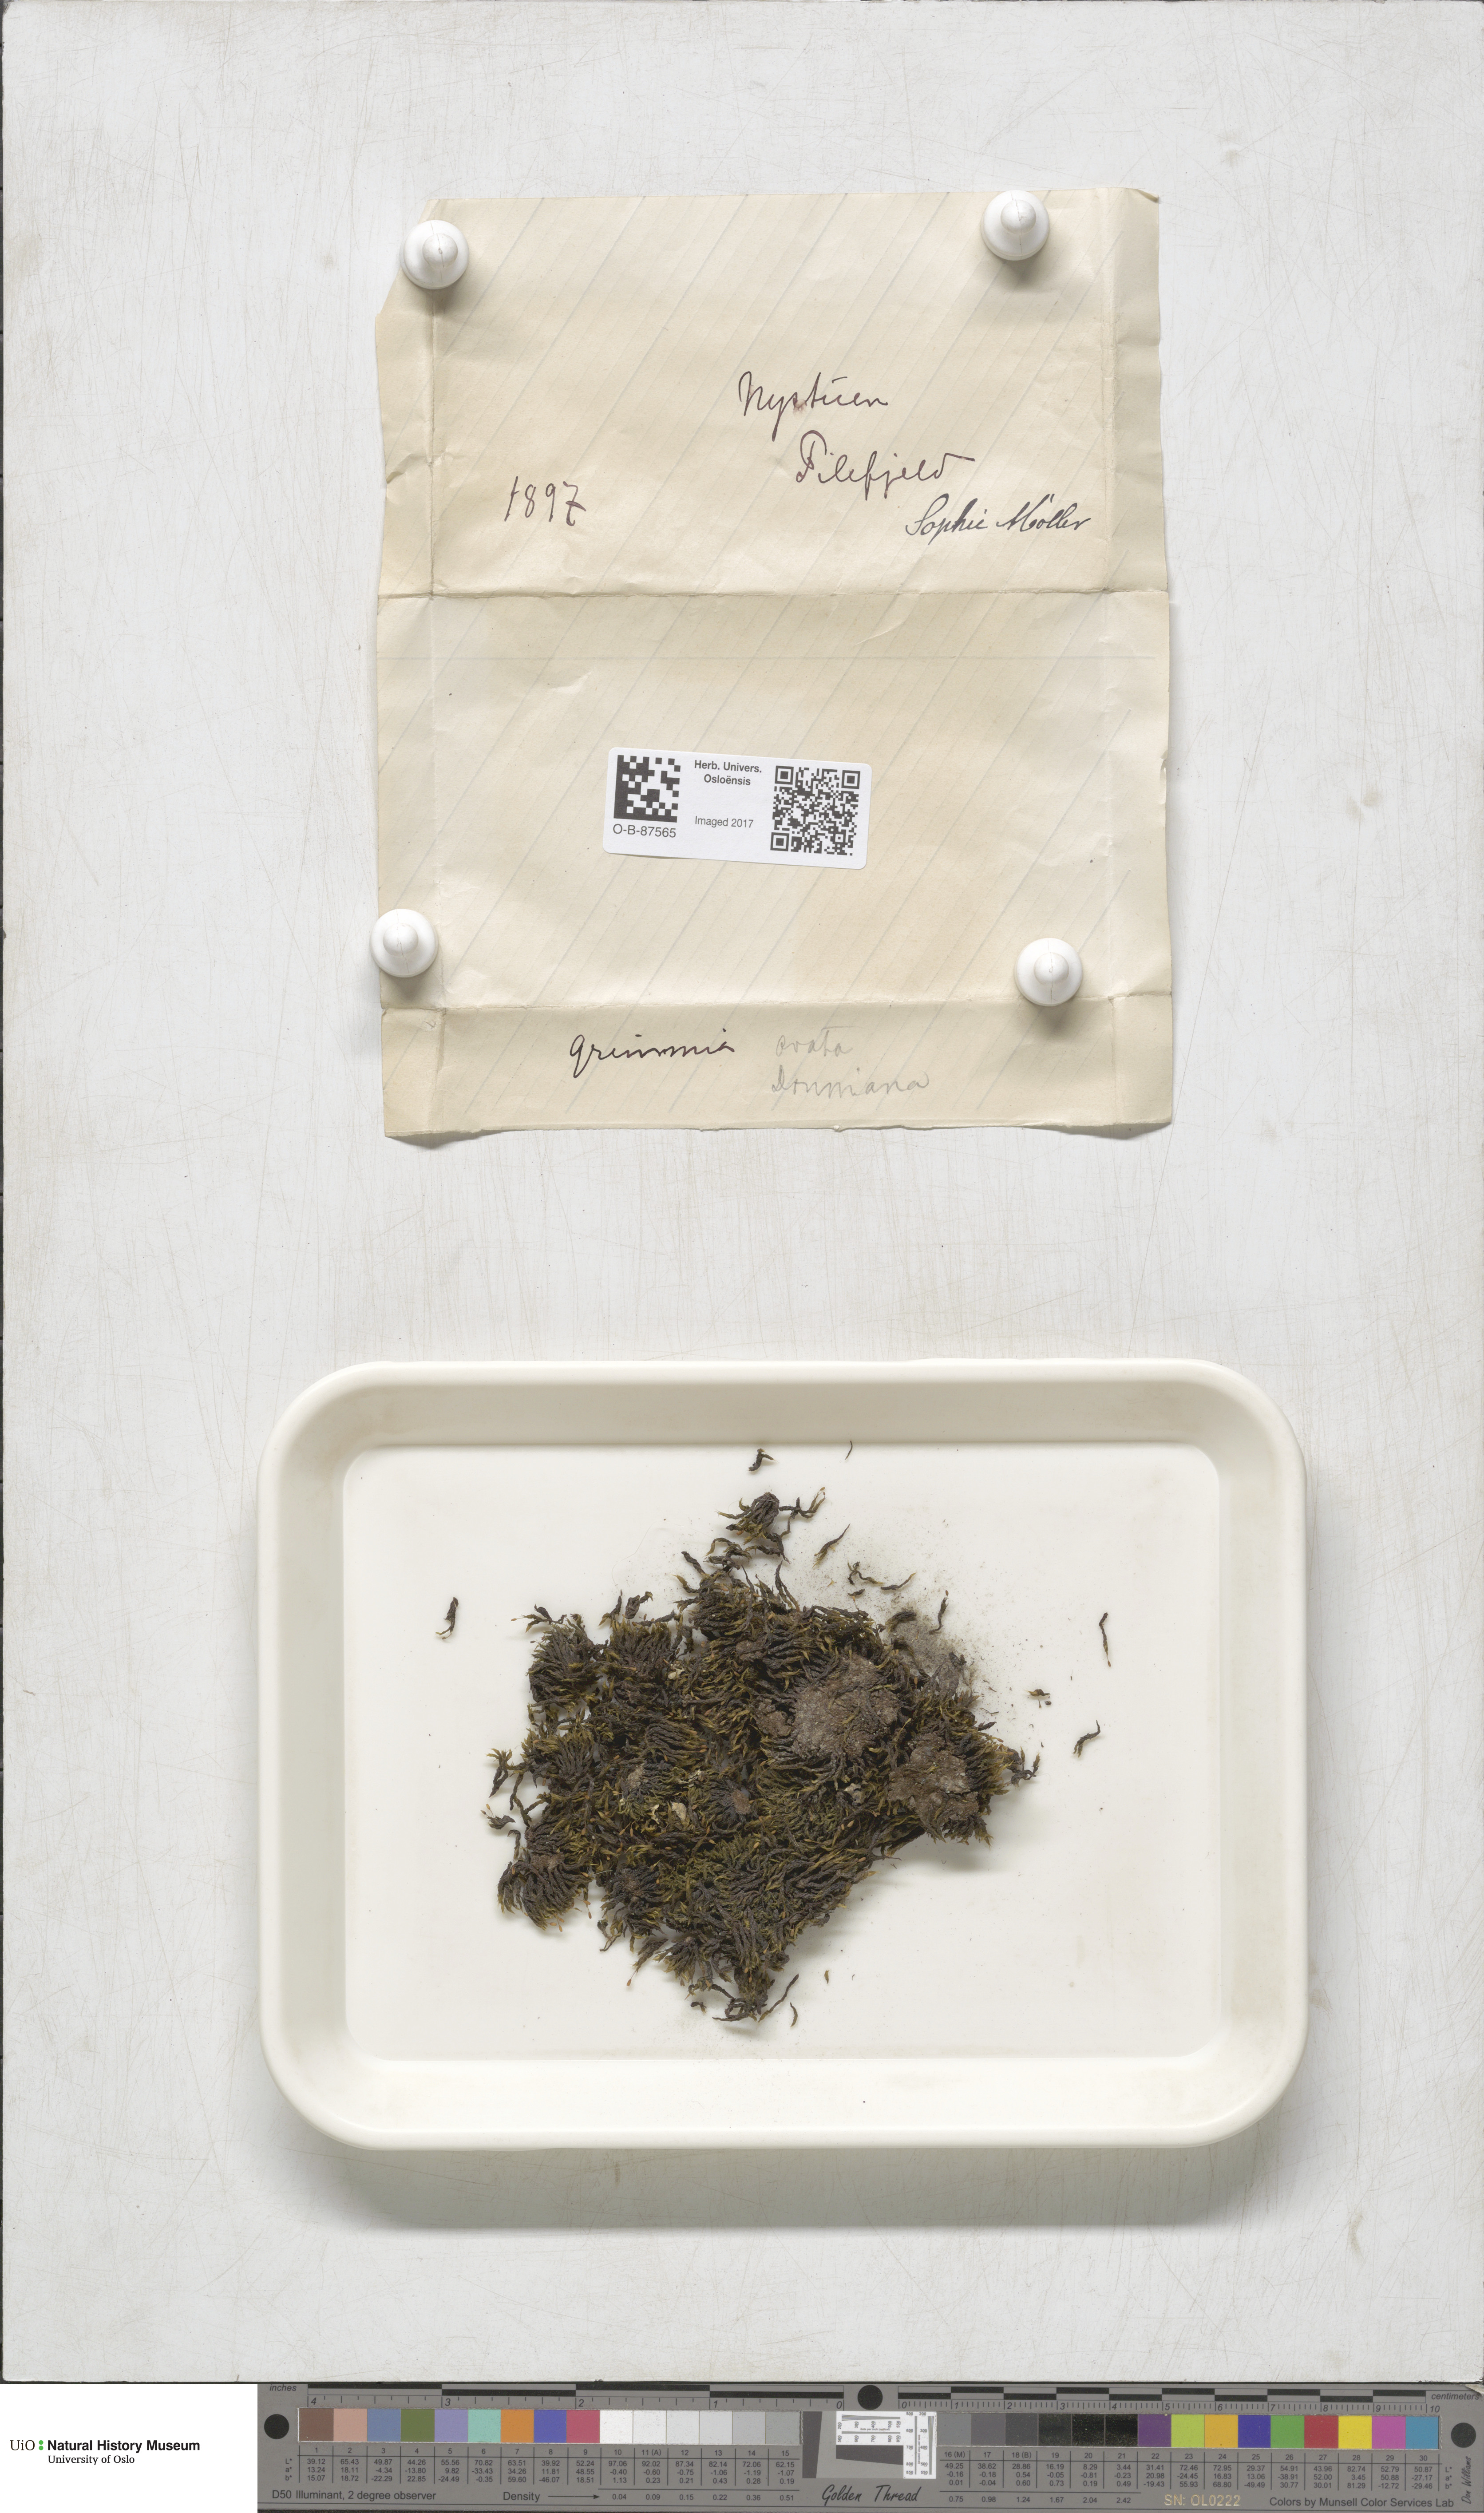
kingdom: Plantae
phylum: Bryophyta
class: Bryopsida
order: Grimmiales
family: Grimmiaceae
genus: Grimmia
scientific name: Grimmia ovalis
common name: Oval grimmia
